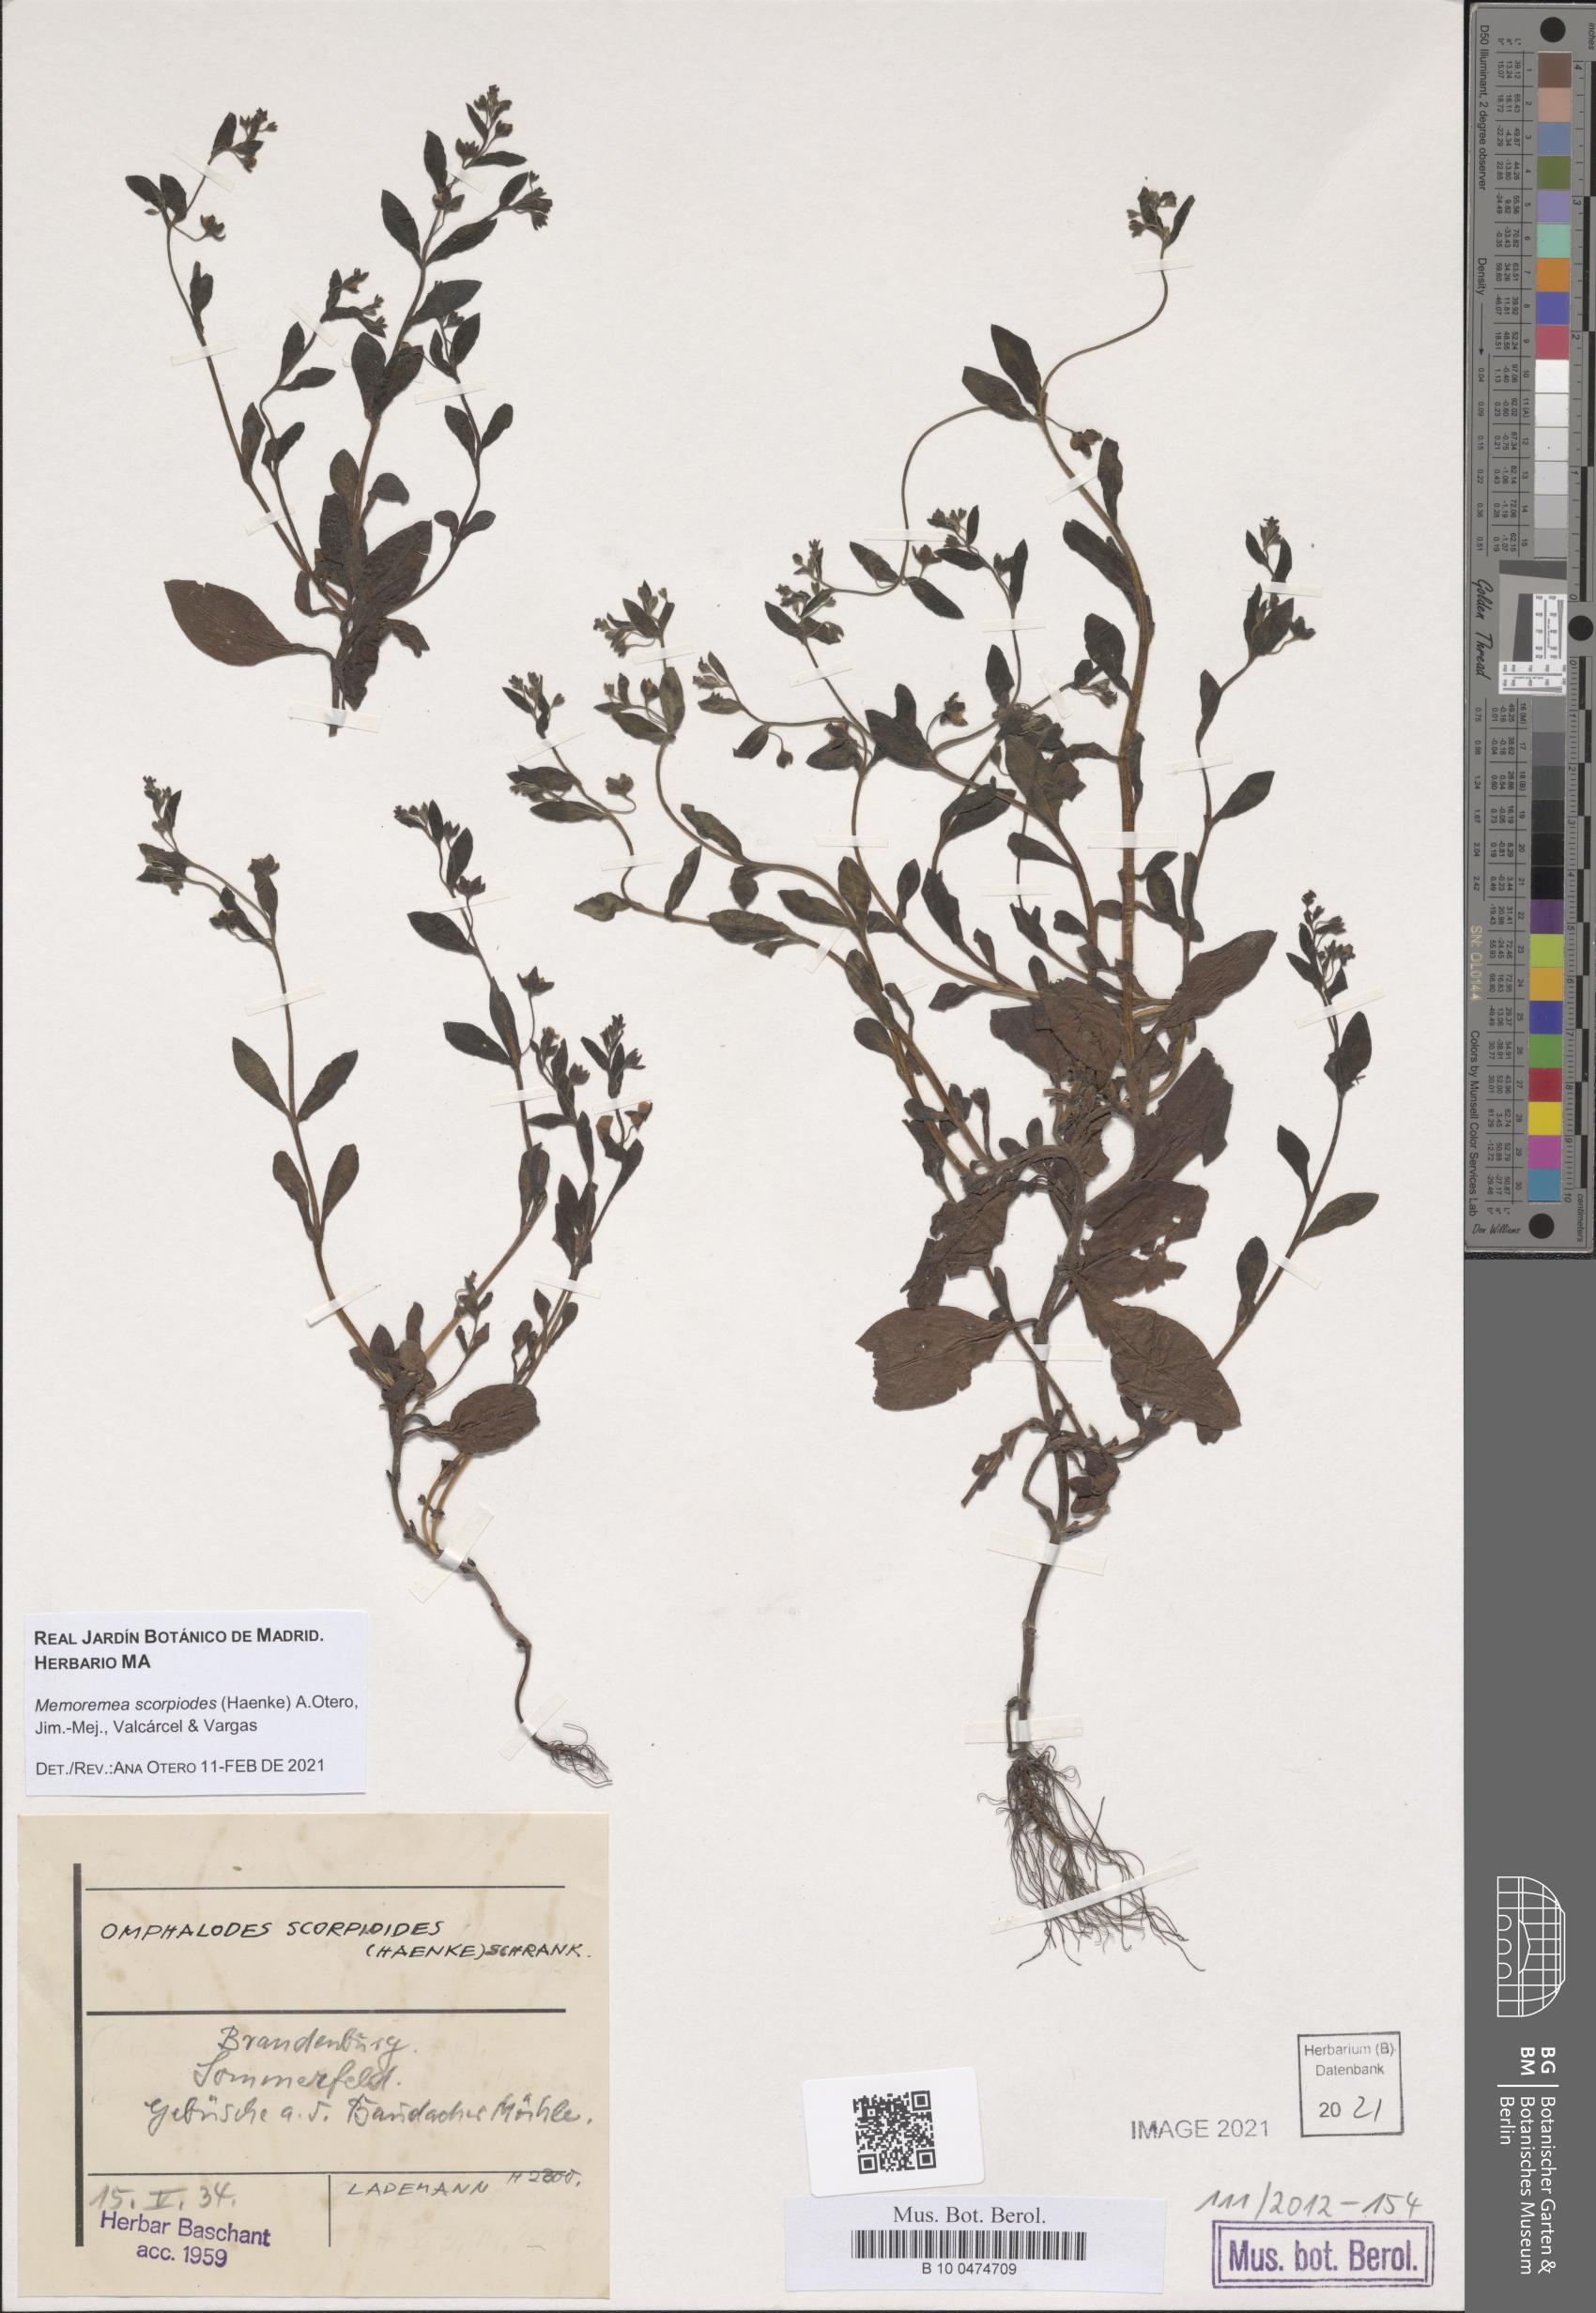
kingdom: Plantae
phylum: Tracheophyta
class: Magnoliopsida
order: Boraginales
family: Boraginaceae
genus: Memoremea
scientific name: Memoremea scorpioides
